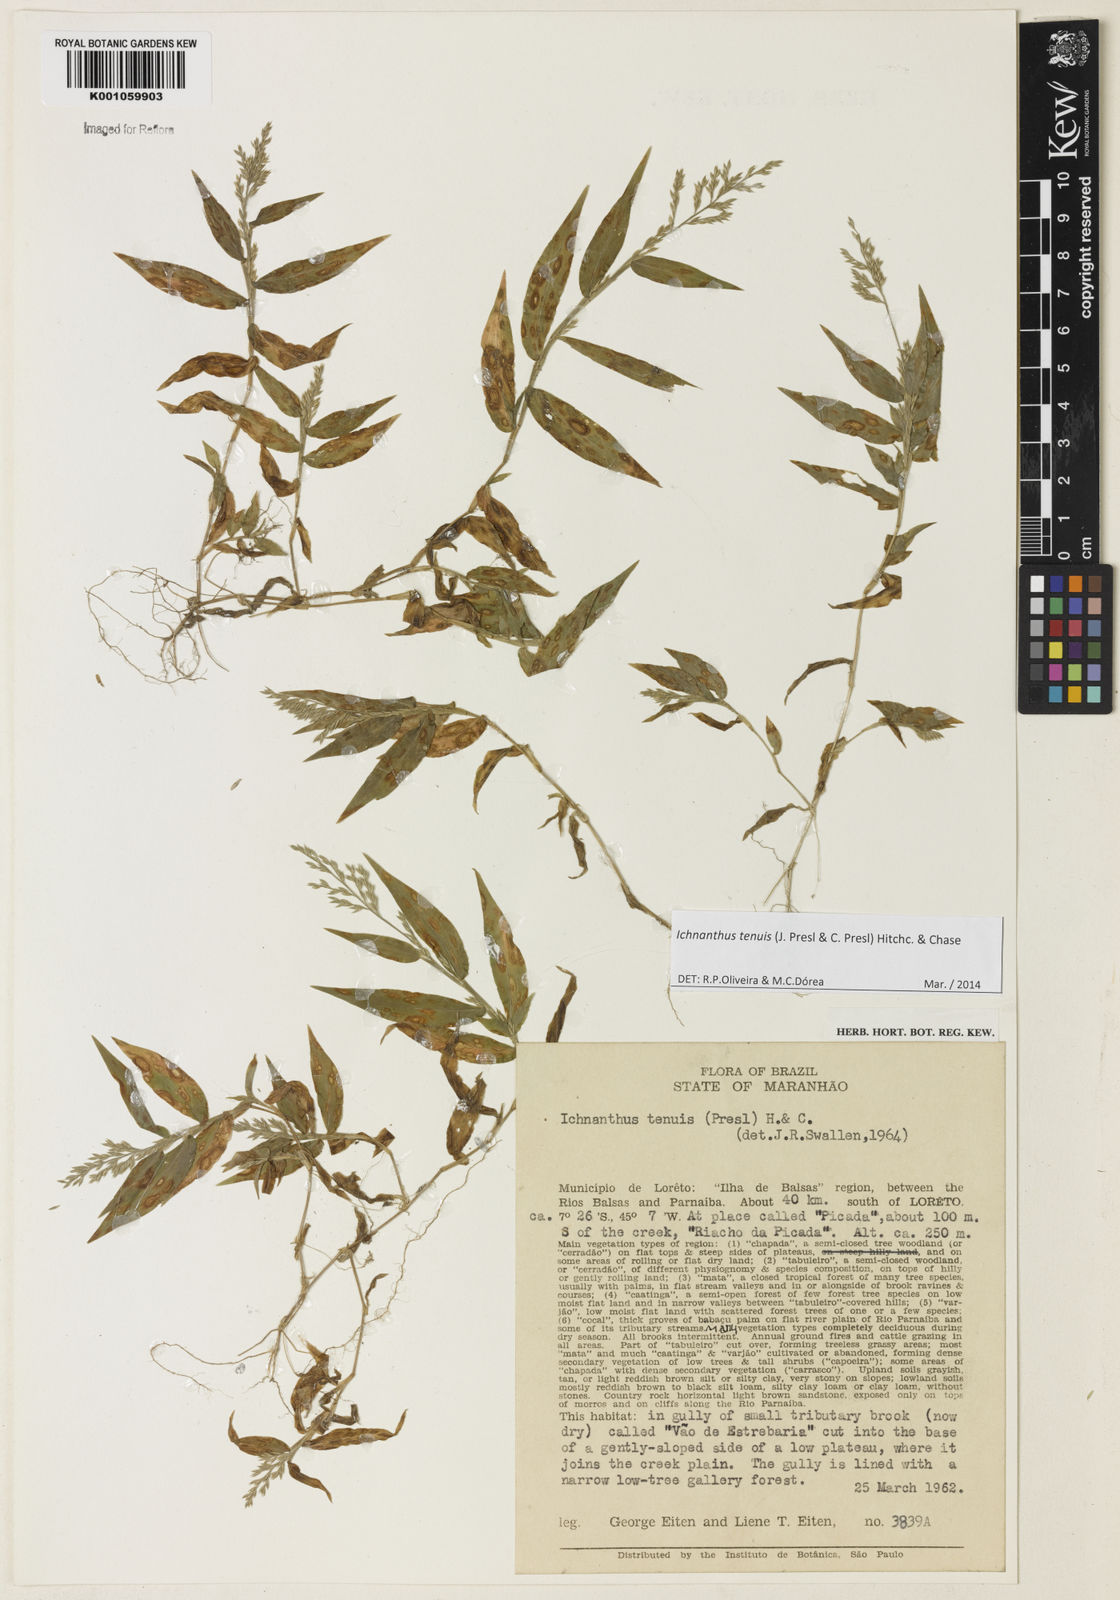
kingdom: Plantae
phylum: Tracheophyta
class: Liliopsida
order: Poales
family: Poaceae
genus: Ichnanthus
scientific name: Ichnanthus tenuis
